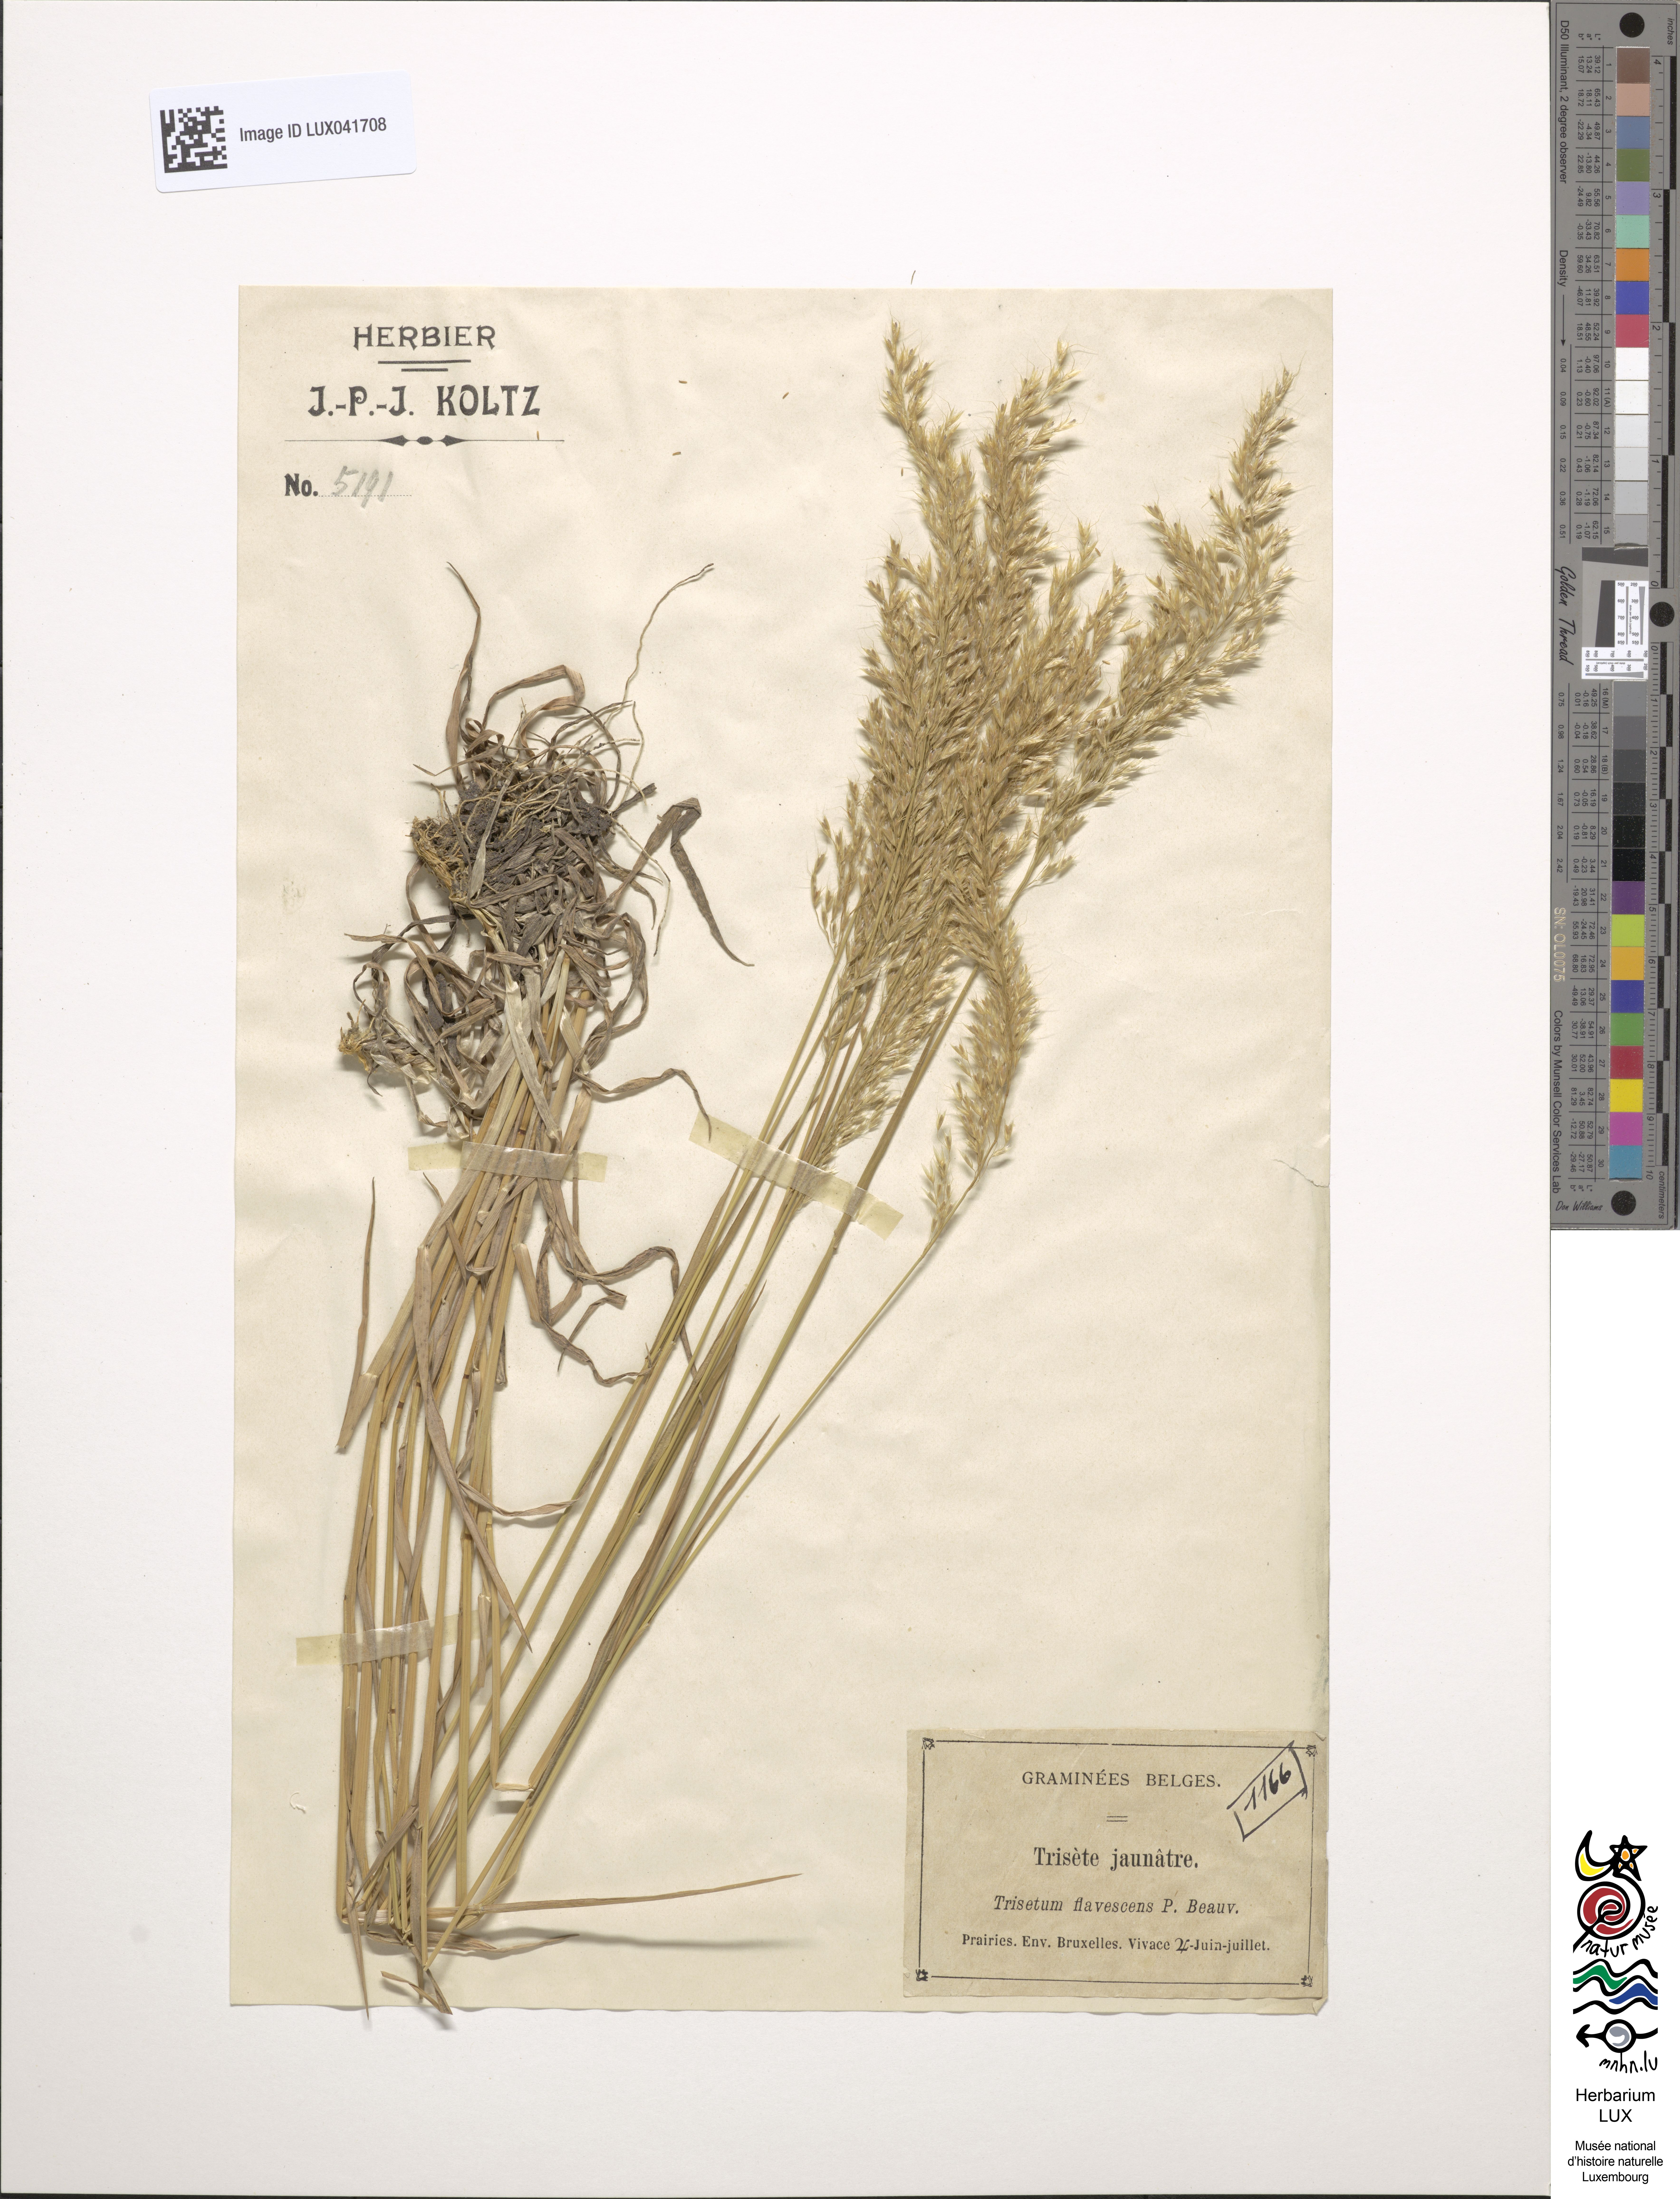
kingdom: Plantae
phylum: Tracheophyta
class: Liliopsida
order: Poales
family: Poaceae
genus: Trisetum
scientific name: Trisetum flavescens
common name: Yellow oat-grass
